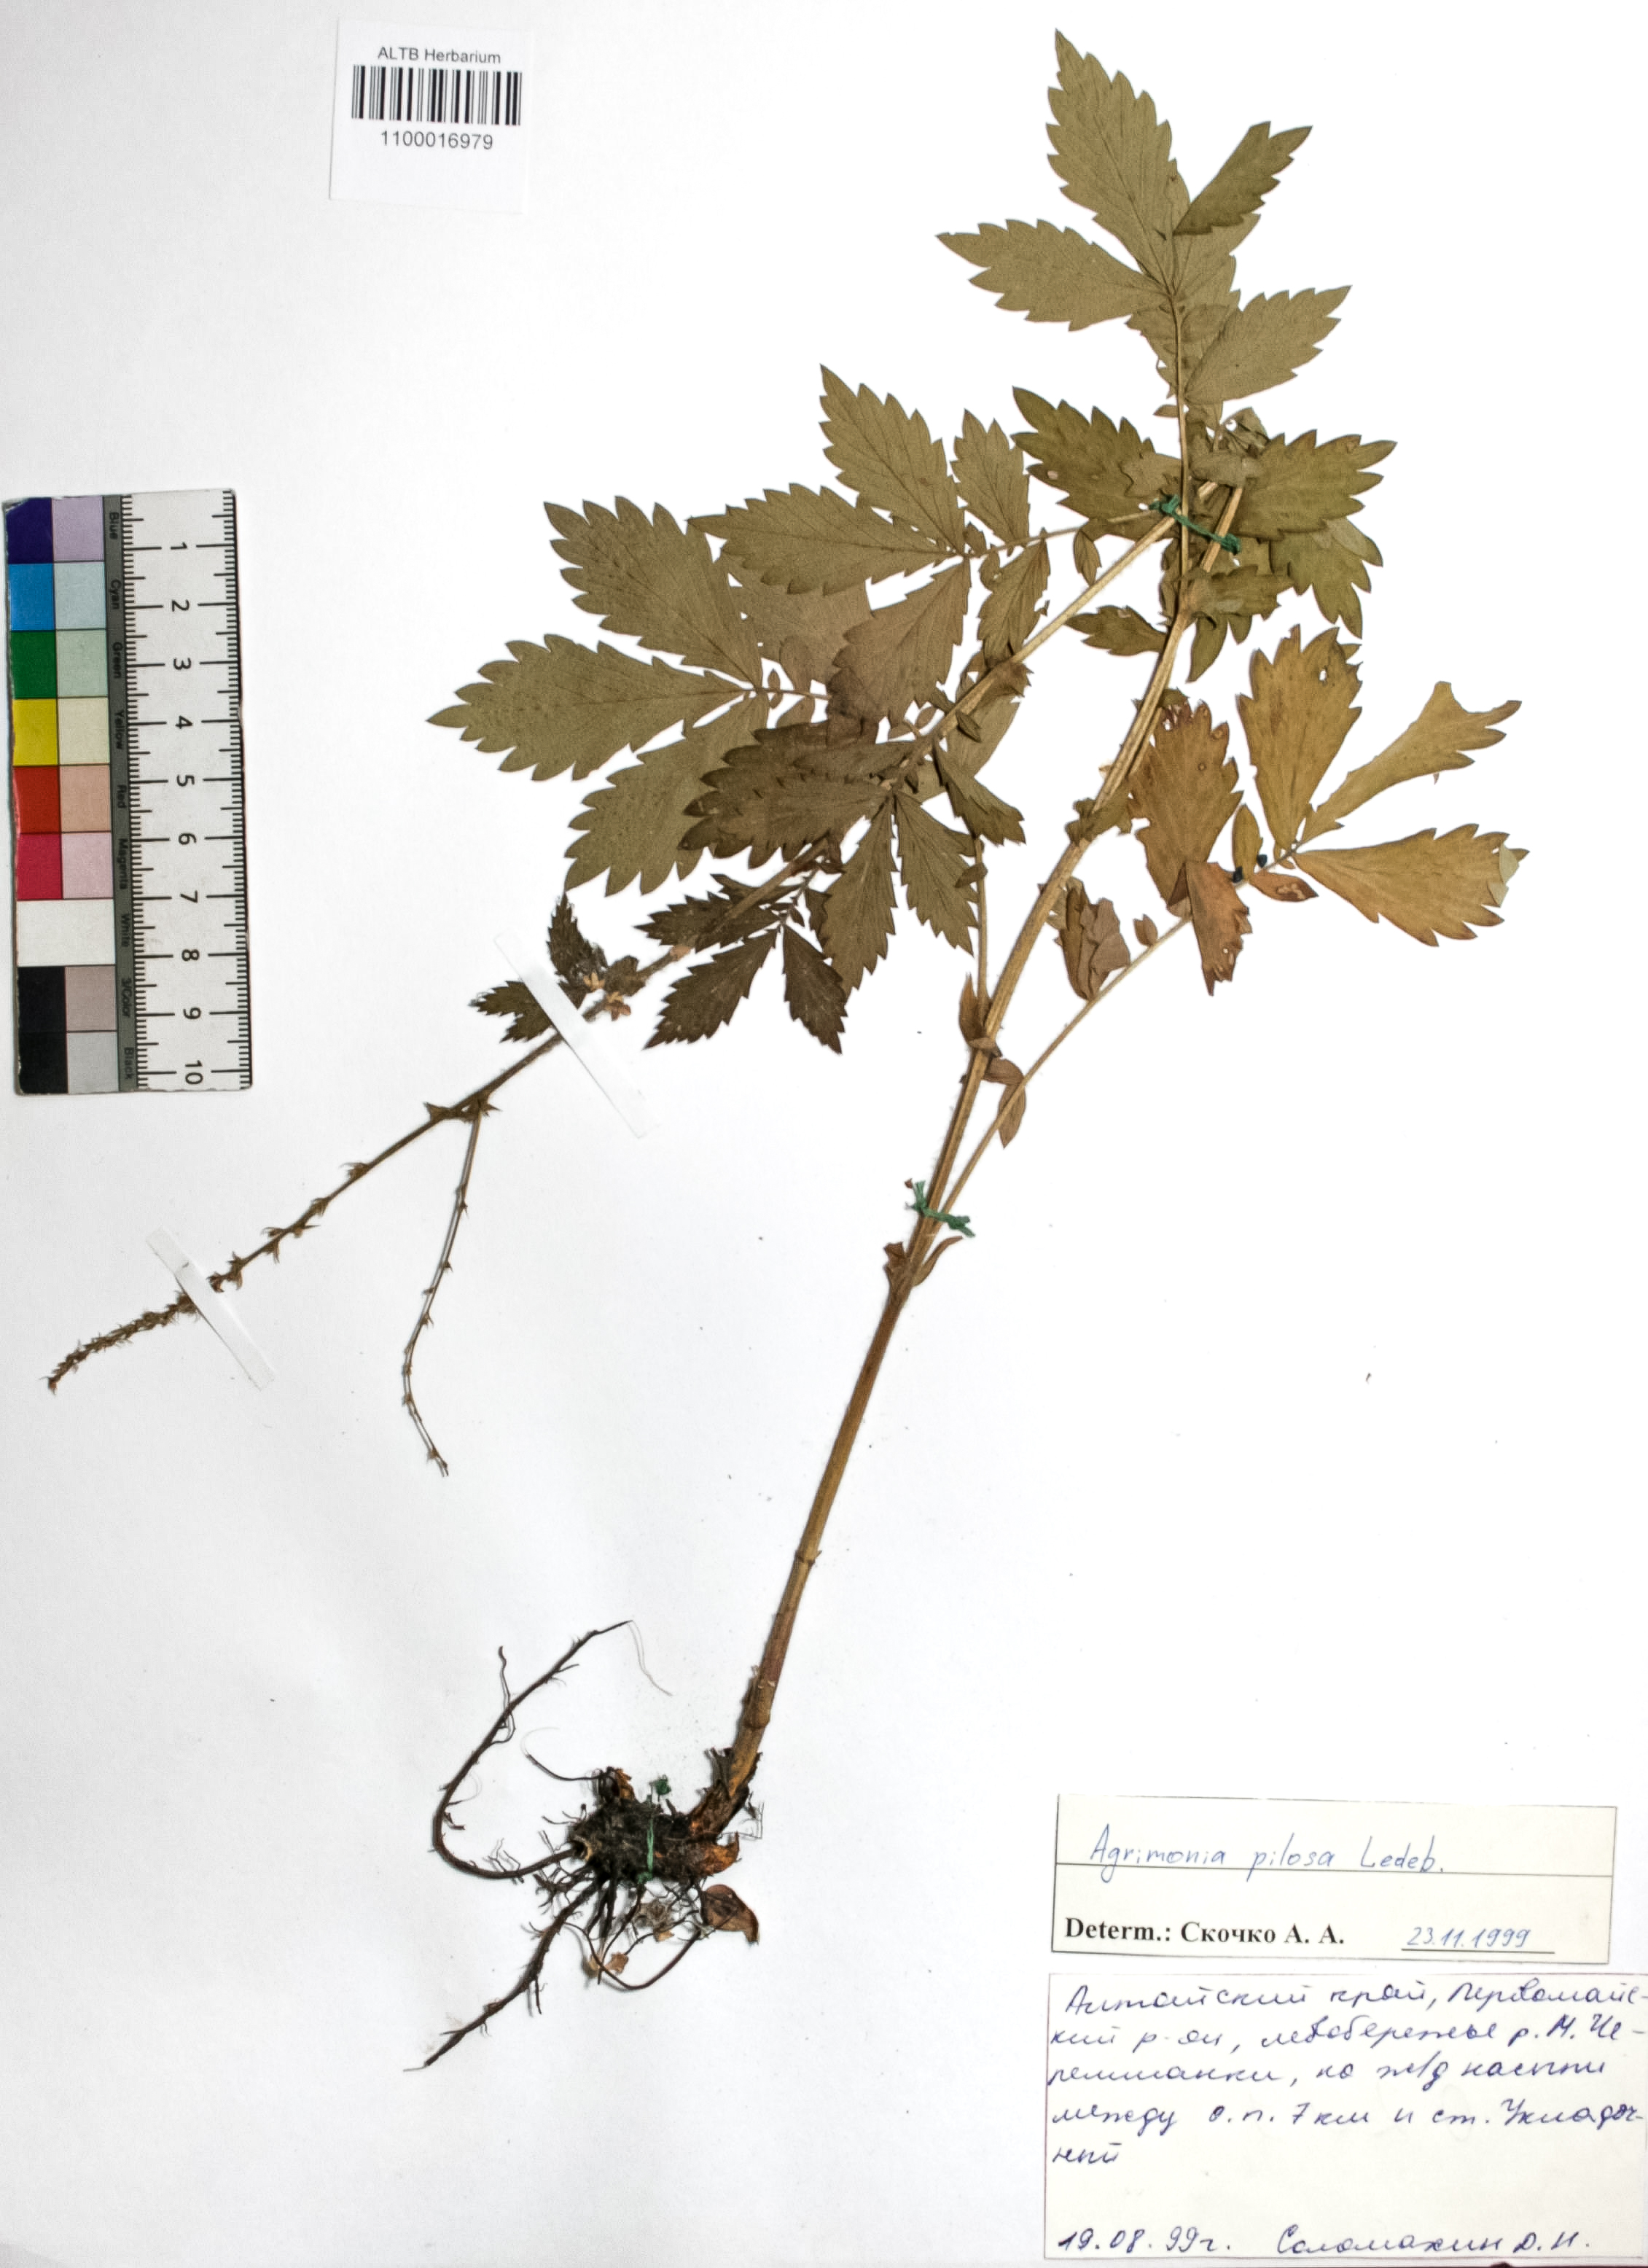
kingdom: Plantae
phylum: Tracheophyta
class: Magnoliopsida
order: Rosales
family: Rosaceae
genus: Agrimonia
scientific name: Agrimonia pilosa
